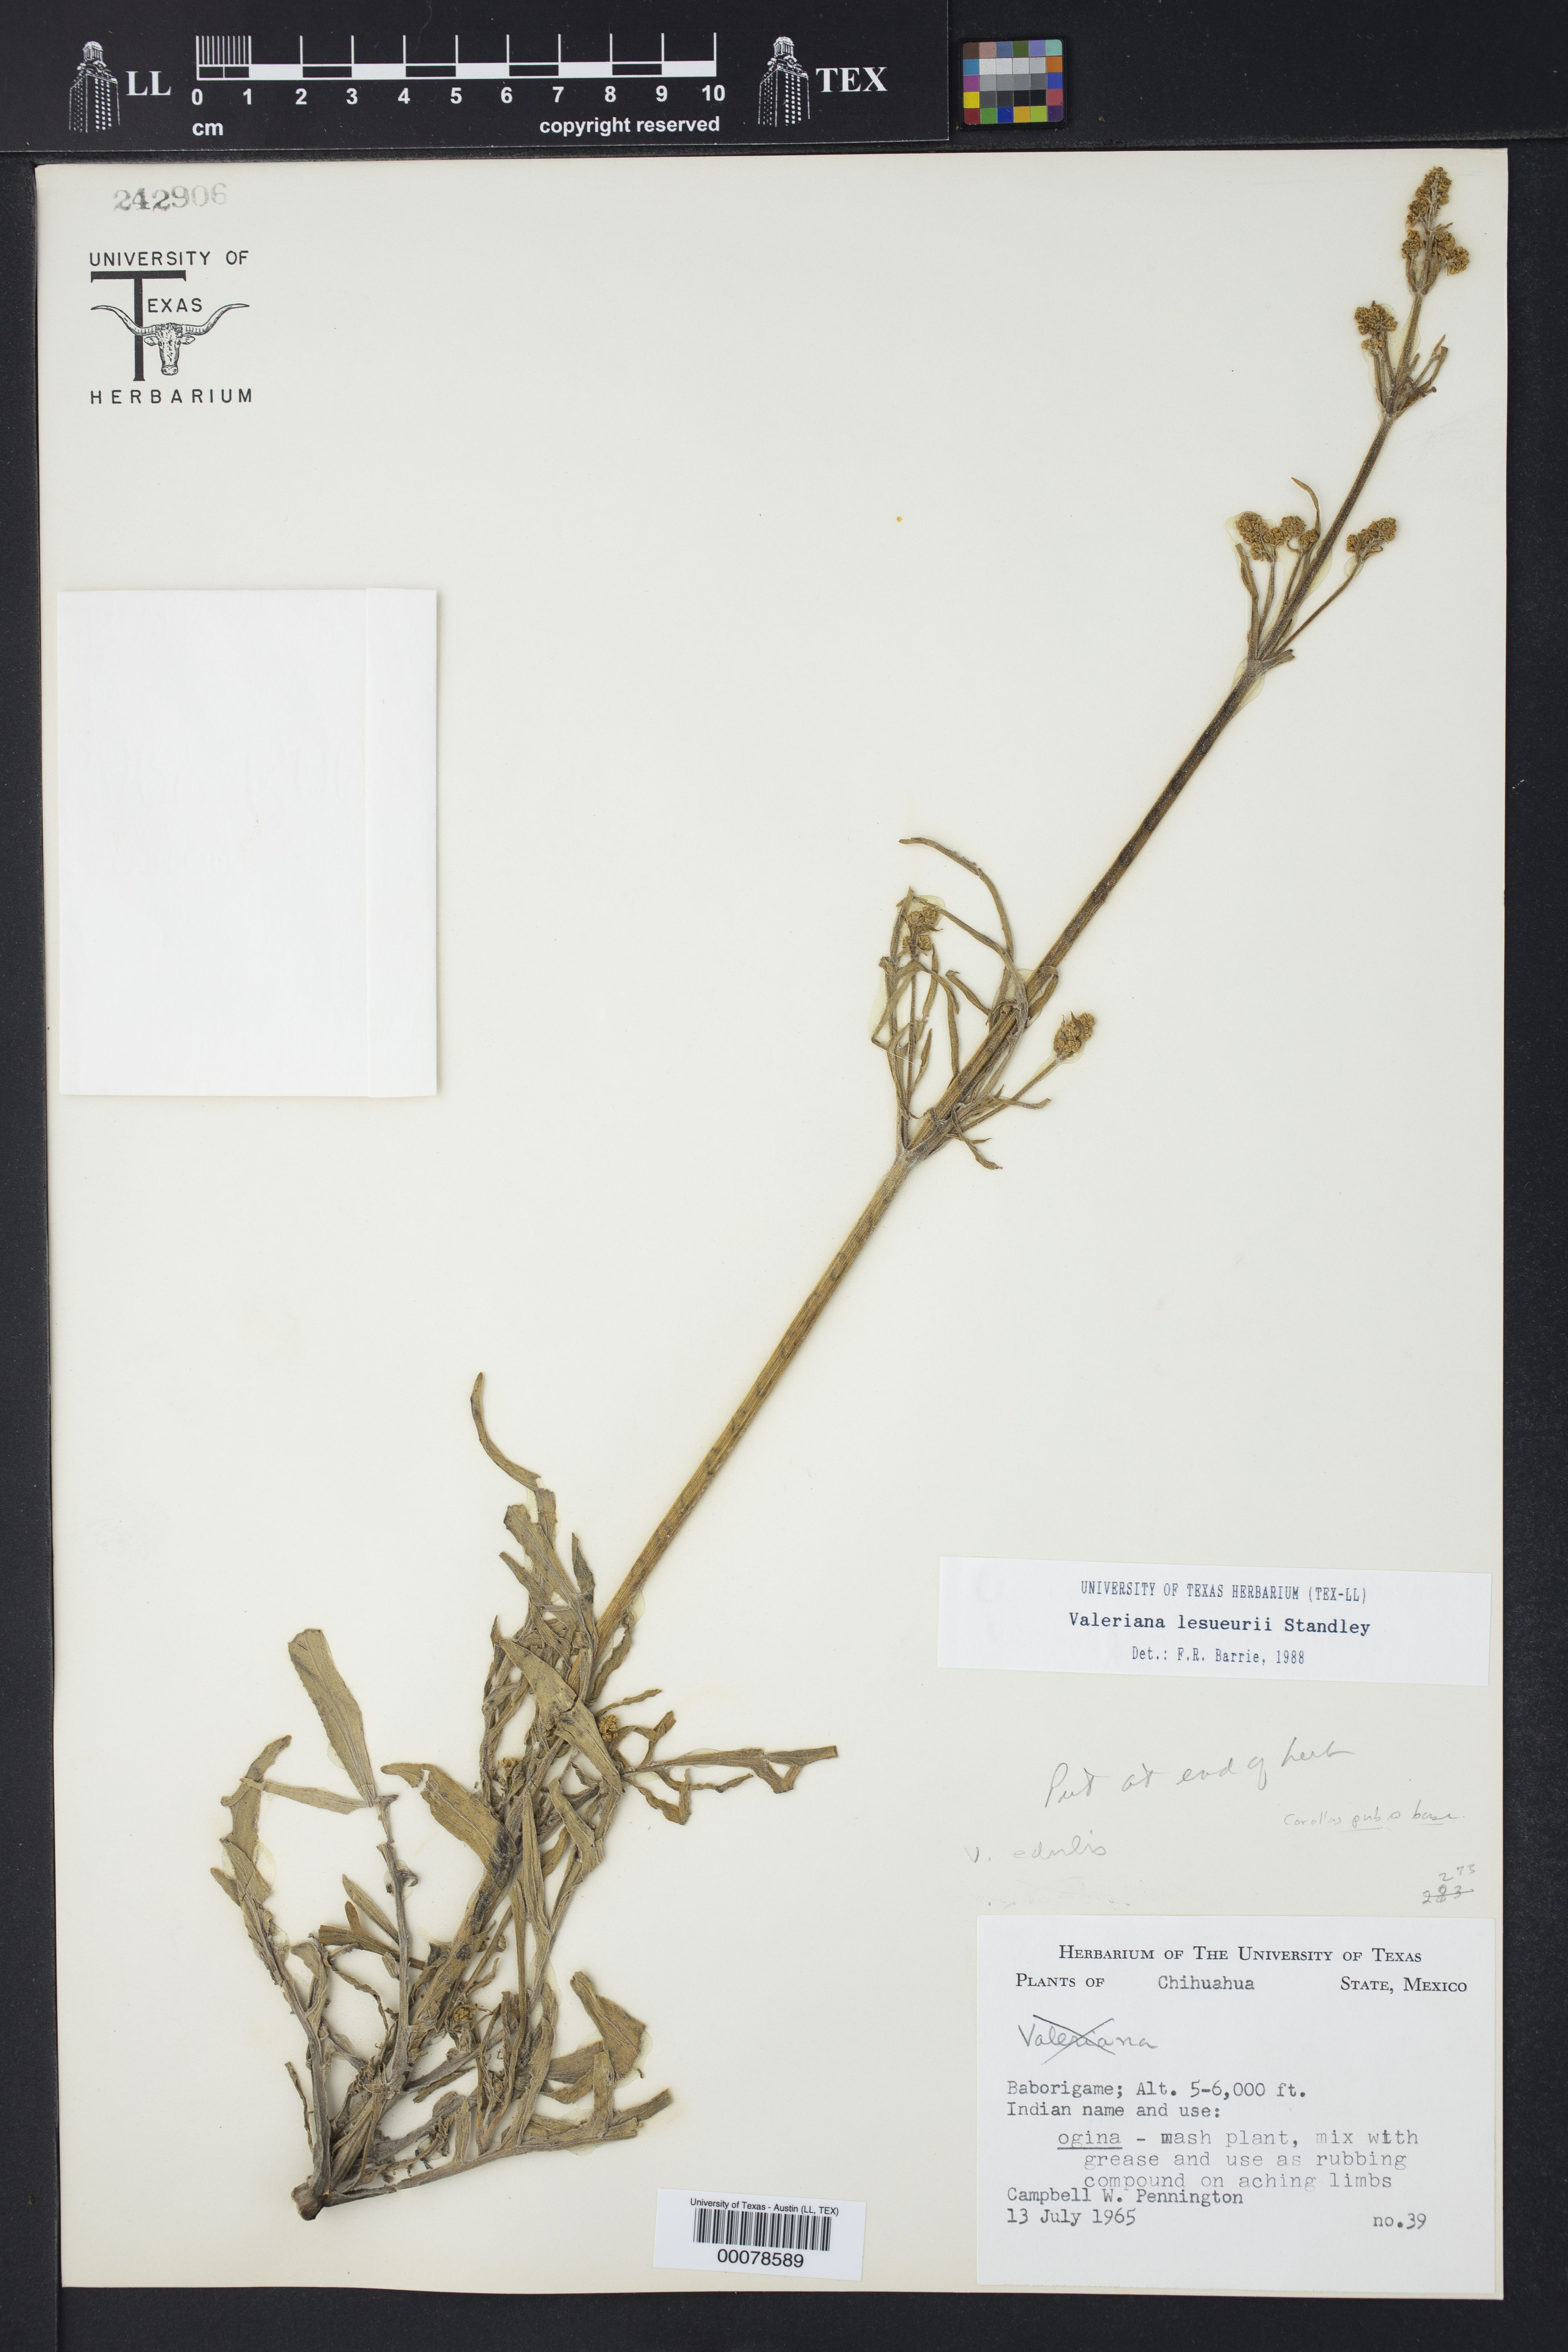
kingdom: Plantae
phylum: Tracheophyta
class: Magnoliopsida
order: Dipsacales
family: Caprifoliaceae
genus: Valeriana
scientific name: Valeriana edulis
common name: Taproot valerian
